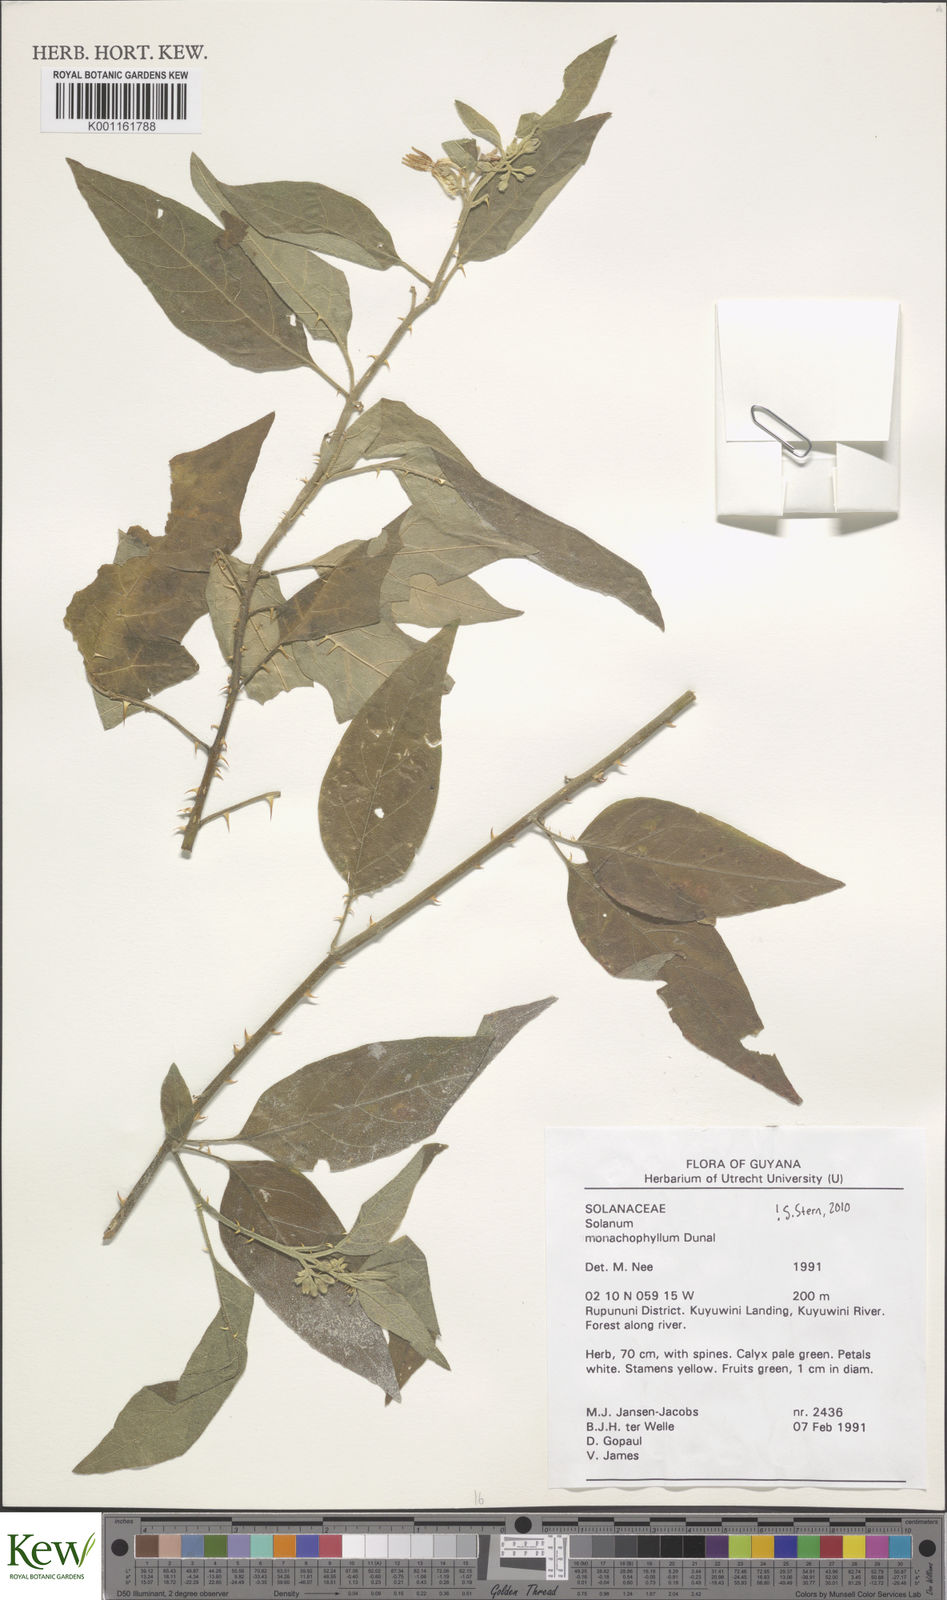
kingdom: Plantae
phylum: Tracheophyta
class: Magnoliopsida
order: Solanales
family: Solanaceae
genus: Solanum
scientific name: Solanum monachophyllum
